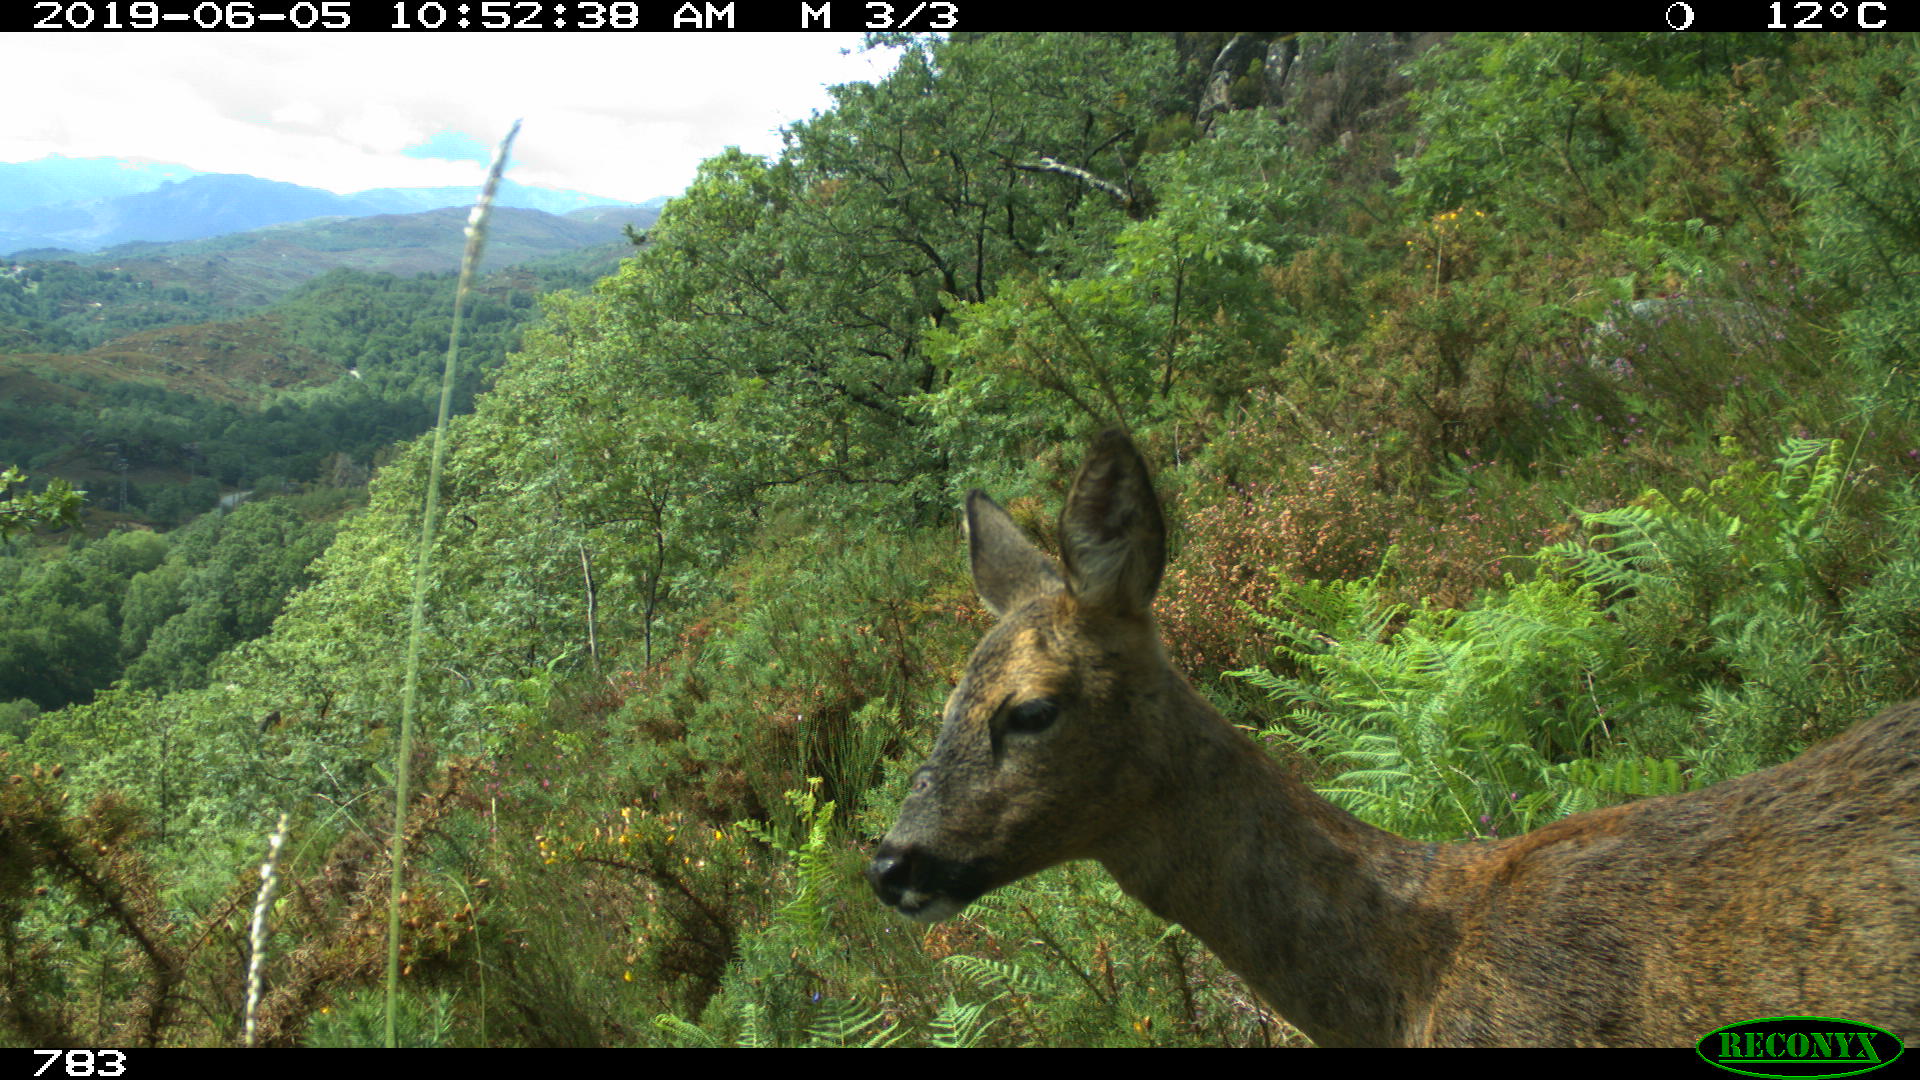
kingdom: Animalia
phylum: Chordata
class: Mammalia
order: Artiodactyla
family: Cervidae
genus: Capreolus
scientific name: Capreolus capreolus
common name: Western roe deer
